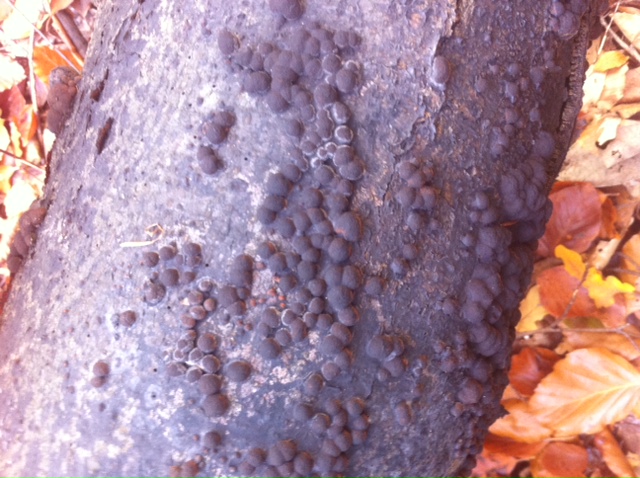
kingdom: Fungi
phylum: Ascomycota
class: Sordariomycetes
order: Xylariales
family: Hypoxylaceae
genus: Hypoxylon
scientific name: Hypoxylon fragiforme
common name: kuljordbær
